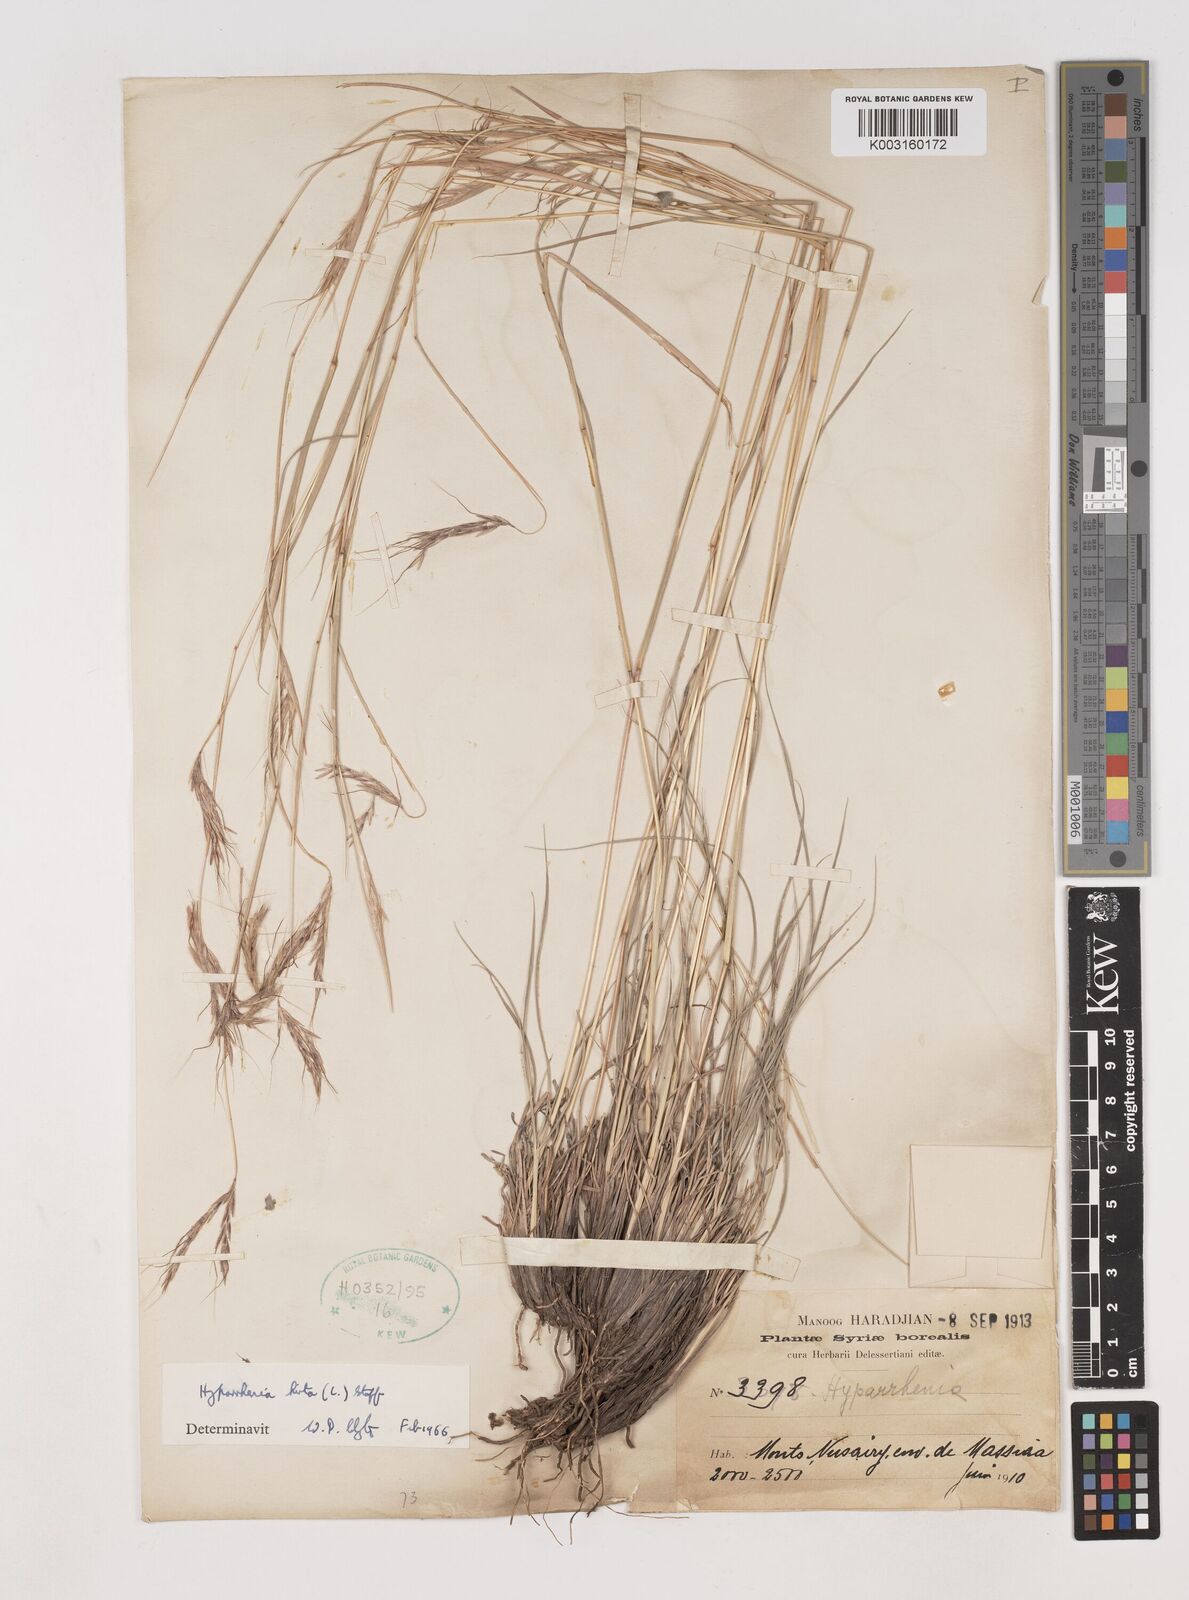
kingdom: Plantae
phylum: Tracheophyta
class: Liliopsida
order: Poales
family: Poaceae
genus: Hyparrhenia
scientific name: Hyparrhenia hirta
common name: Thatching grass
